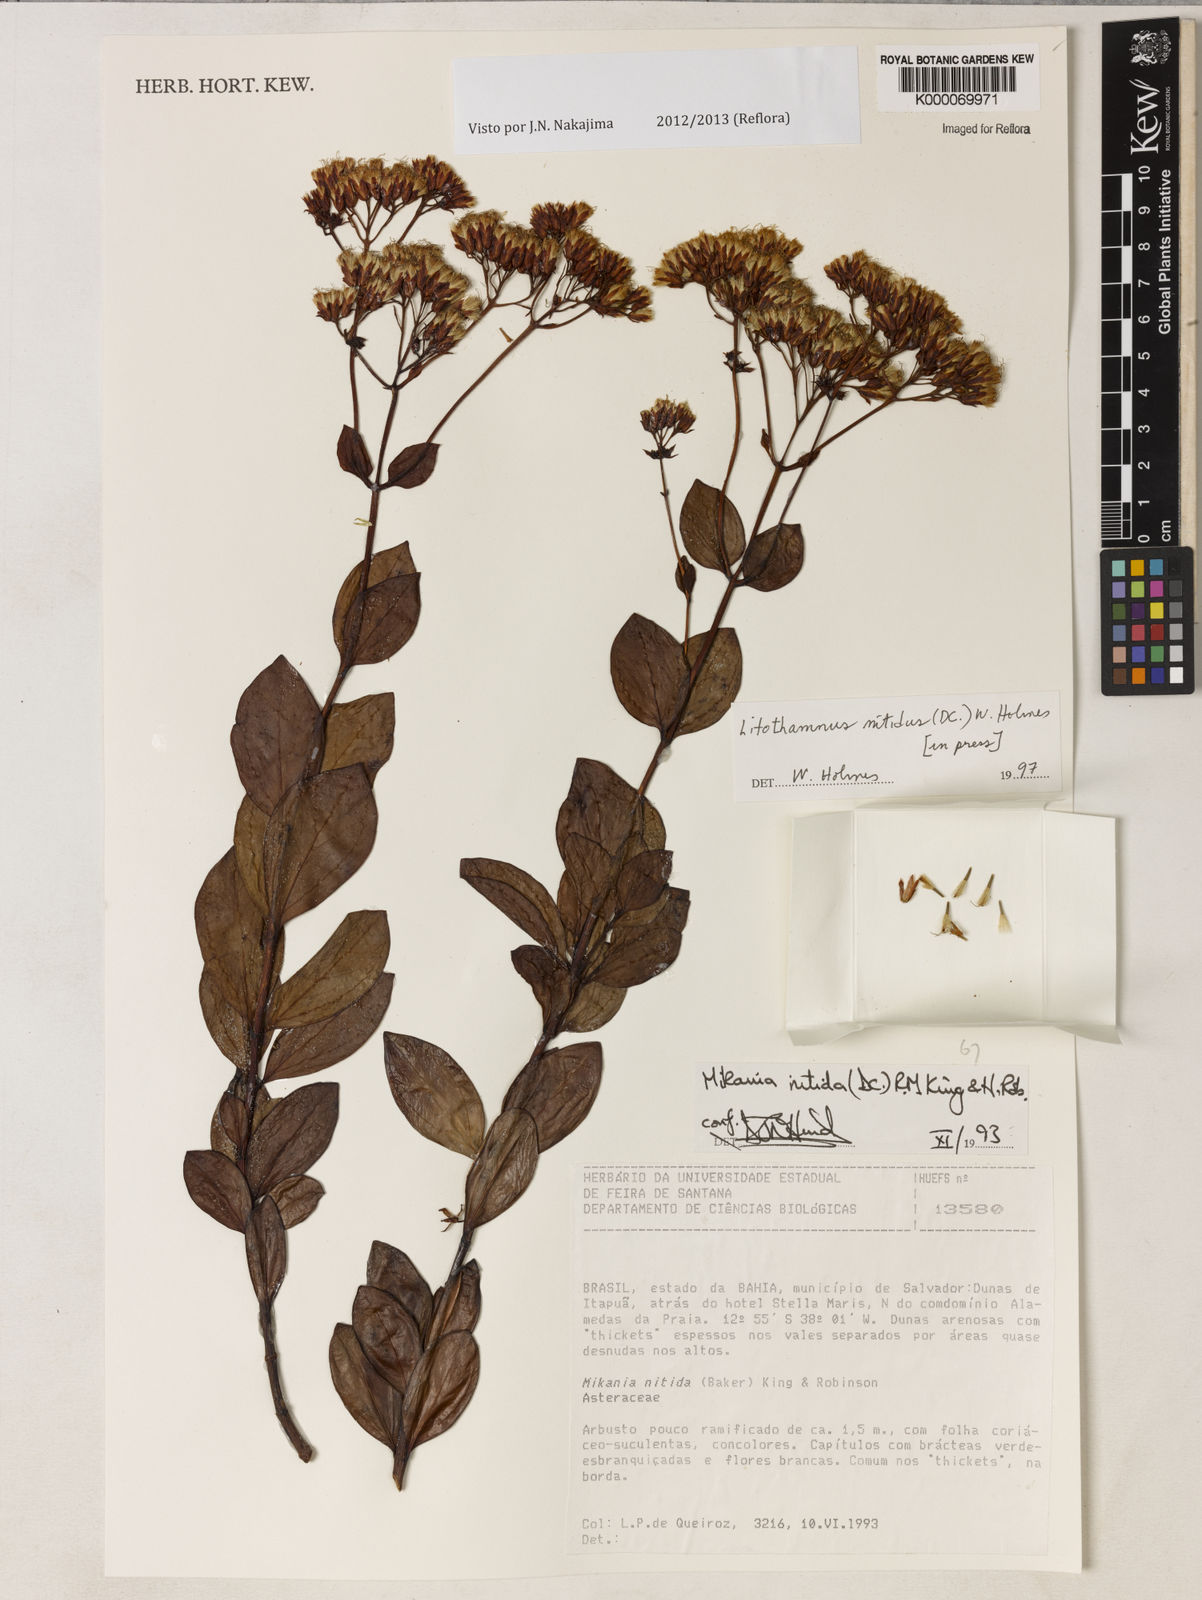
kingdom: Plantae
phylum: Tracheophyta
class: Magnoliopsida
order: Asterales
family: Asteraceae
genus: Litothamnus
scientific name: Litothamnus nitidus
